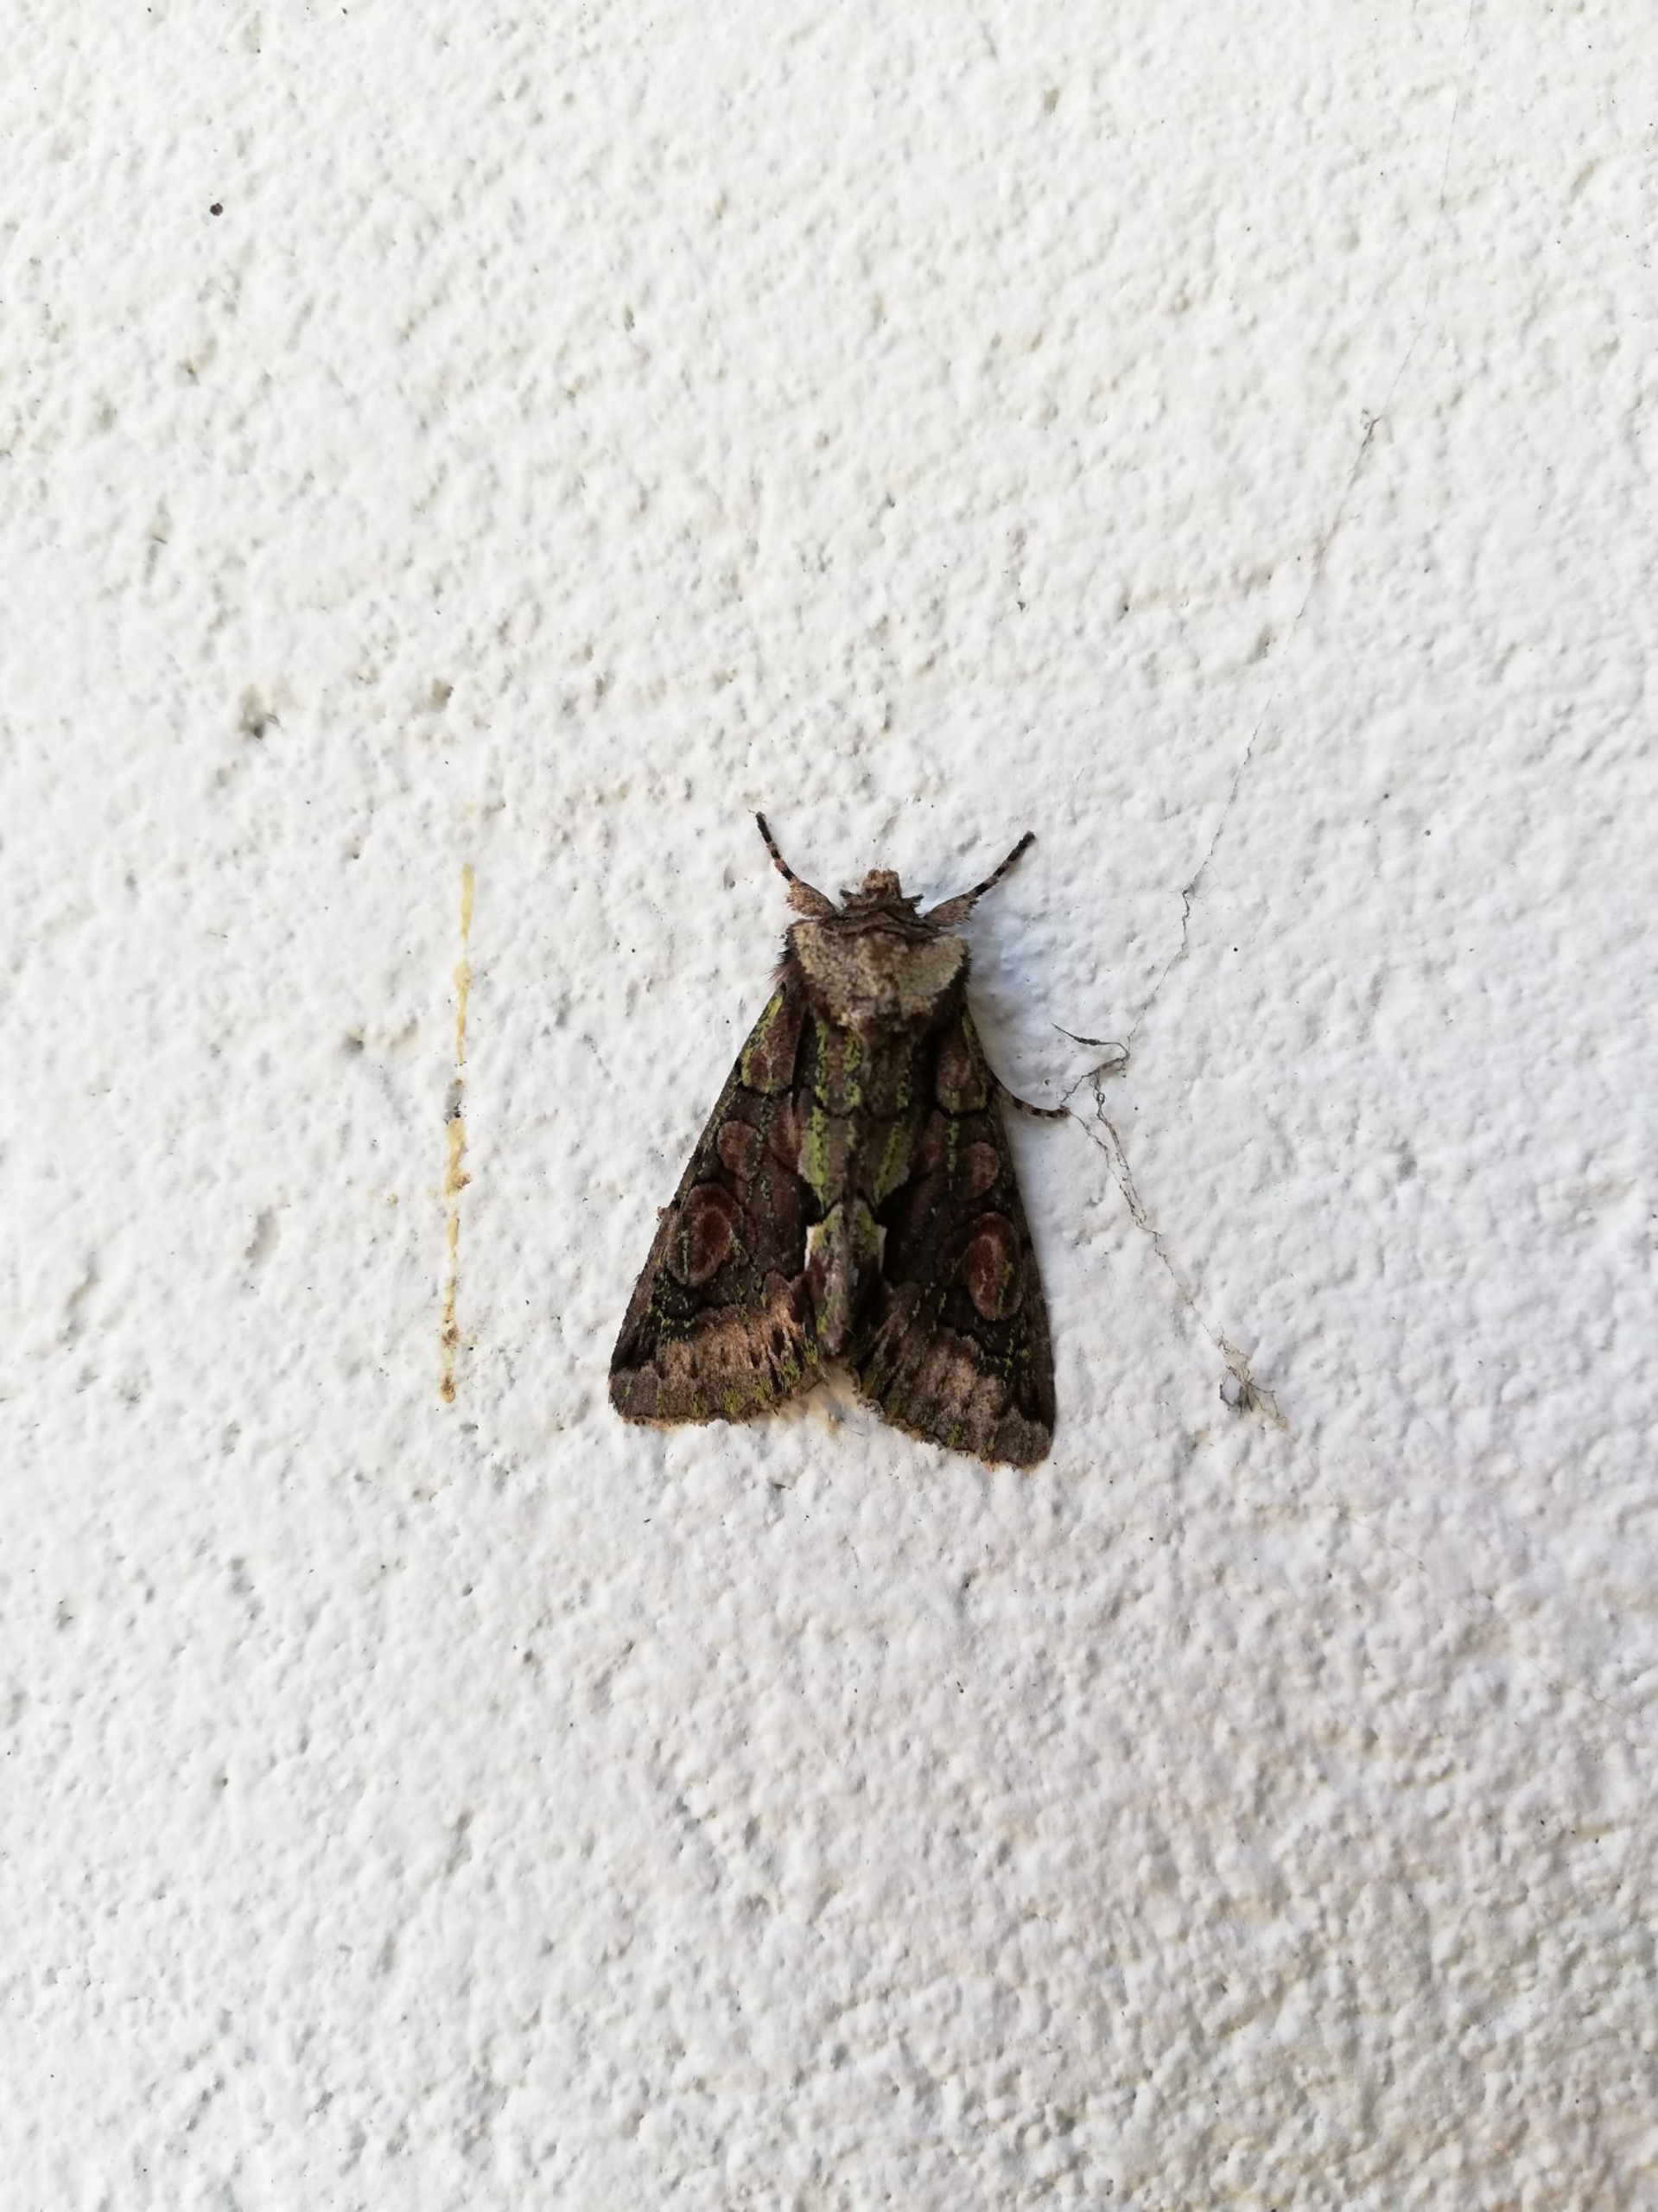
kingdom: Animalia
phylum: Arthropoda
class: Insecta
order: Lepidoptera
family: Noctuidae
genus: Allophyes
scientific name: Allophyes oxyacanthae
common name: Tjørneugle
